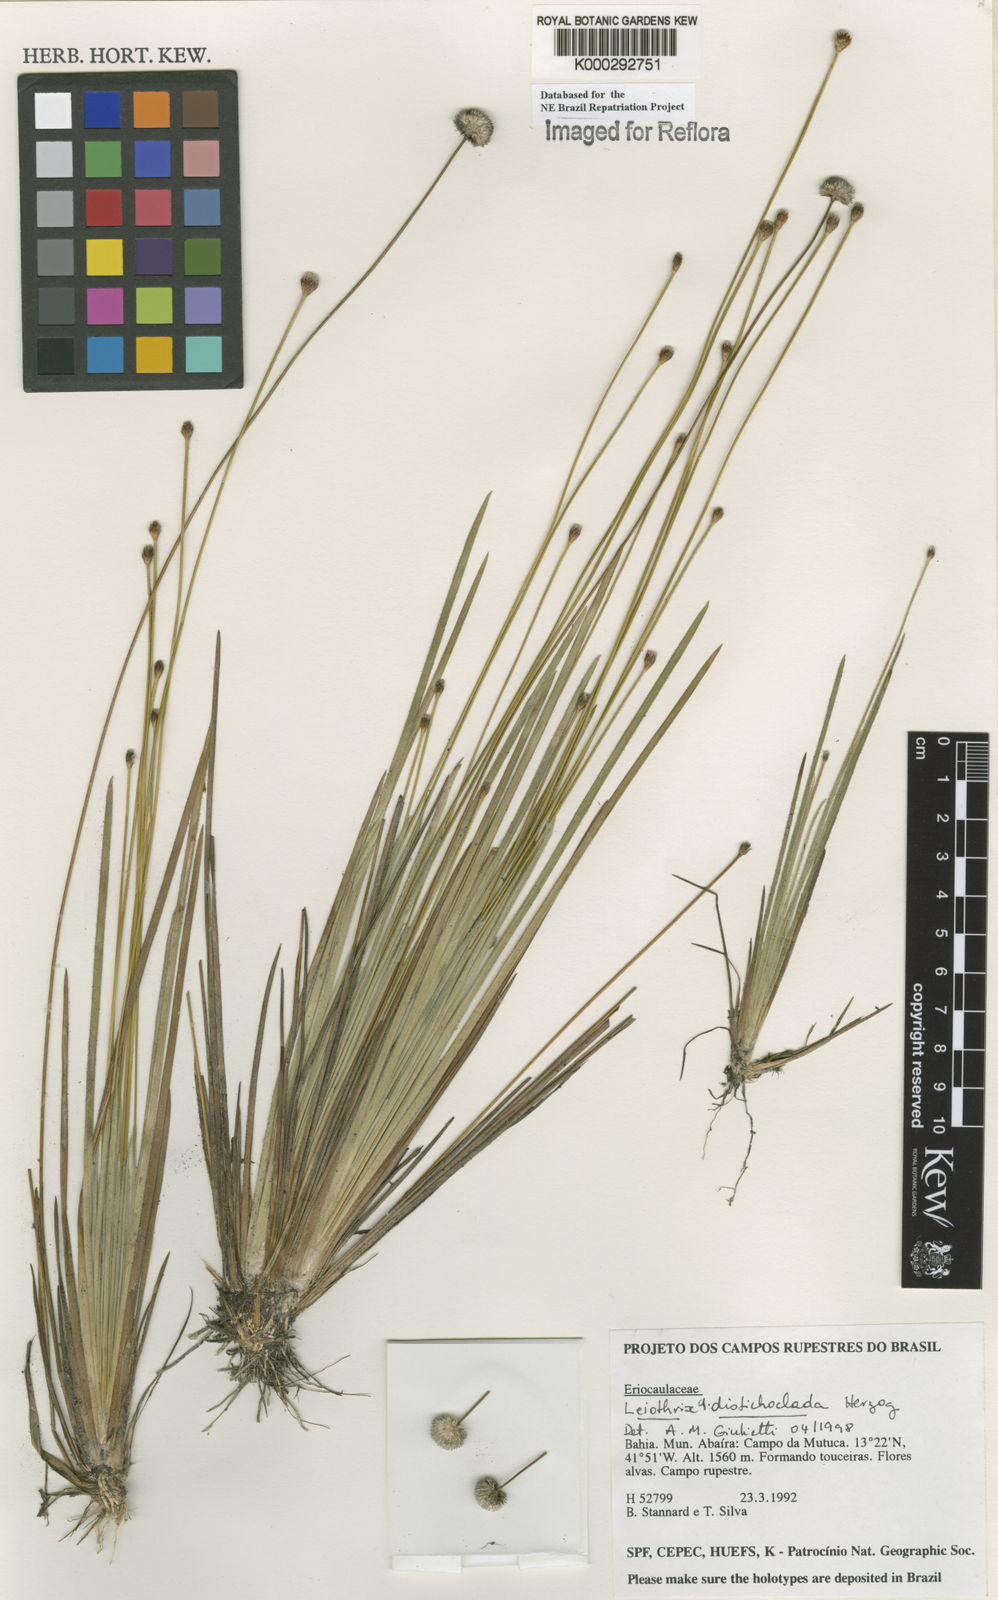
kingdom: Plantae
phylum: Tracheophyta
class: Liliopsida
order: Poales
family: Eriocaulaceae
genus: Leiothrix
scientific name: Leiothrix distichoclada
